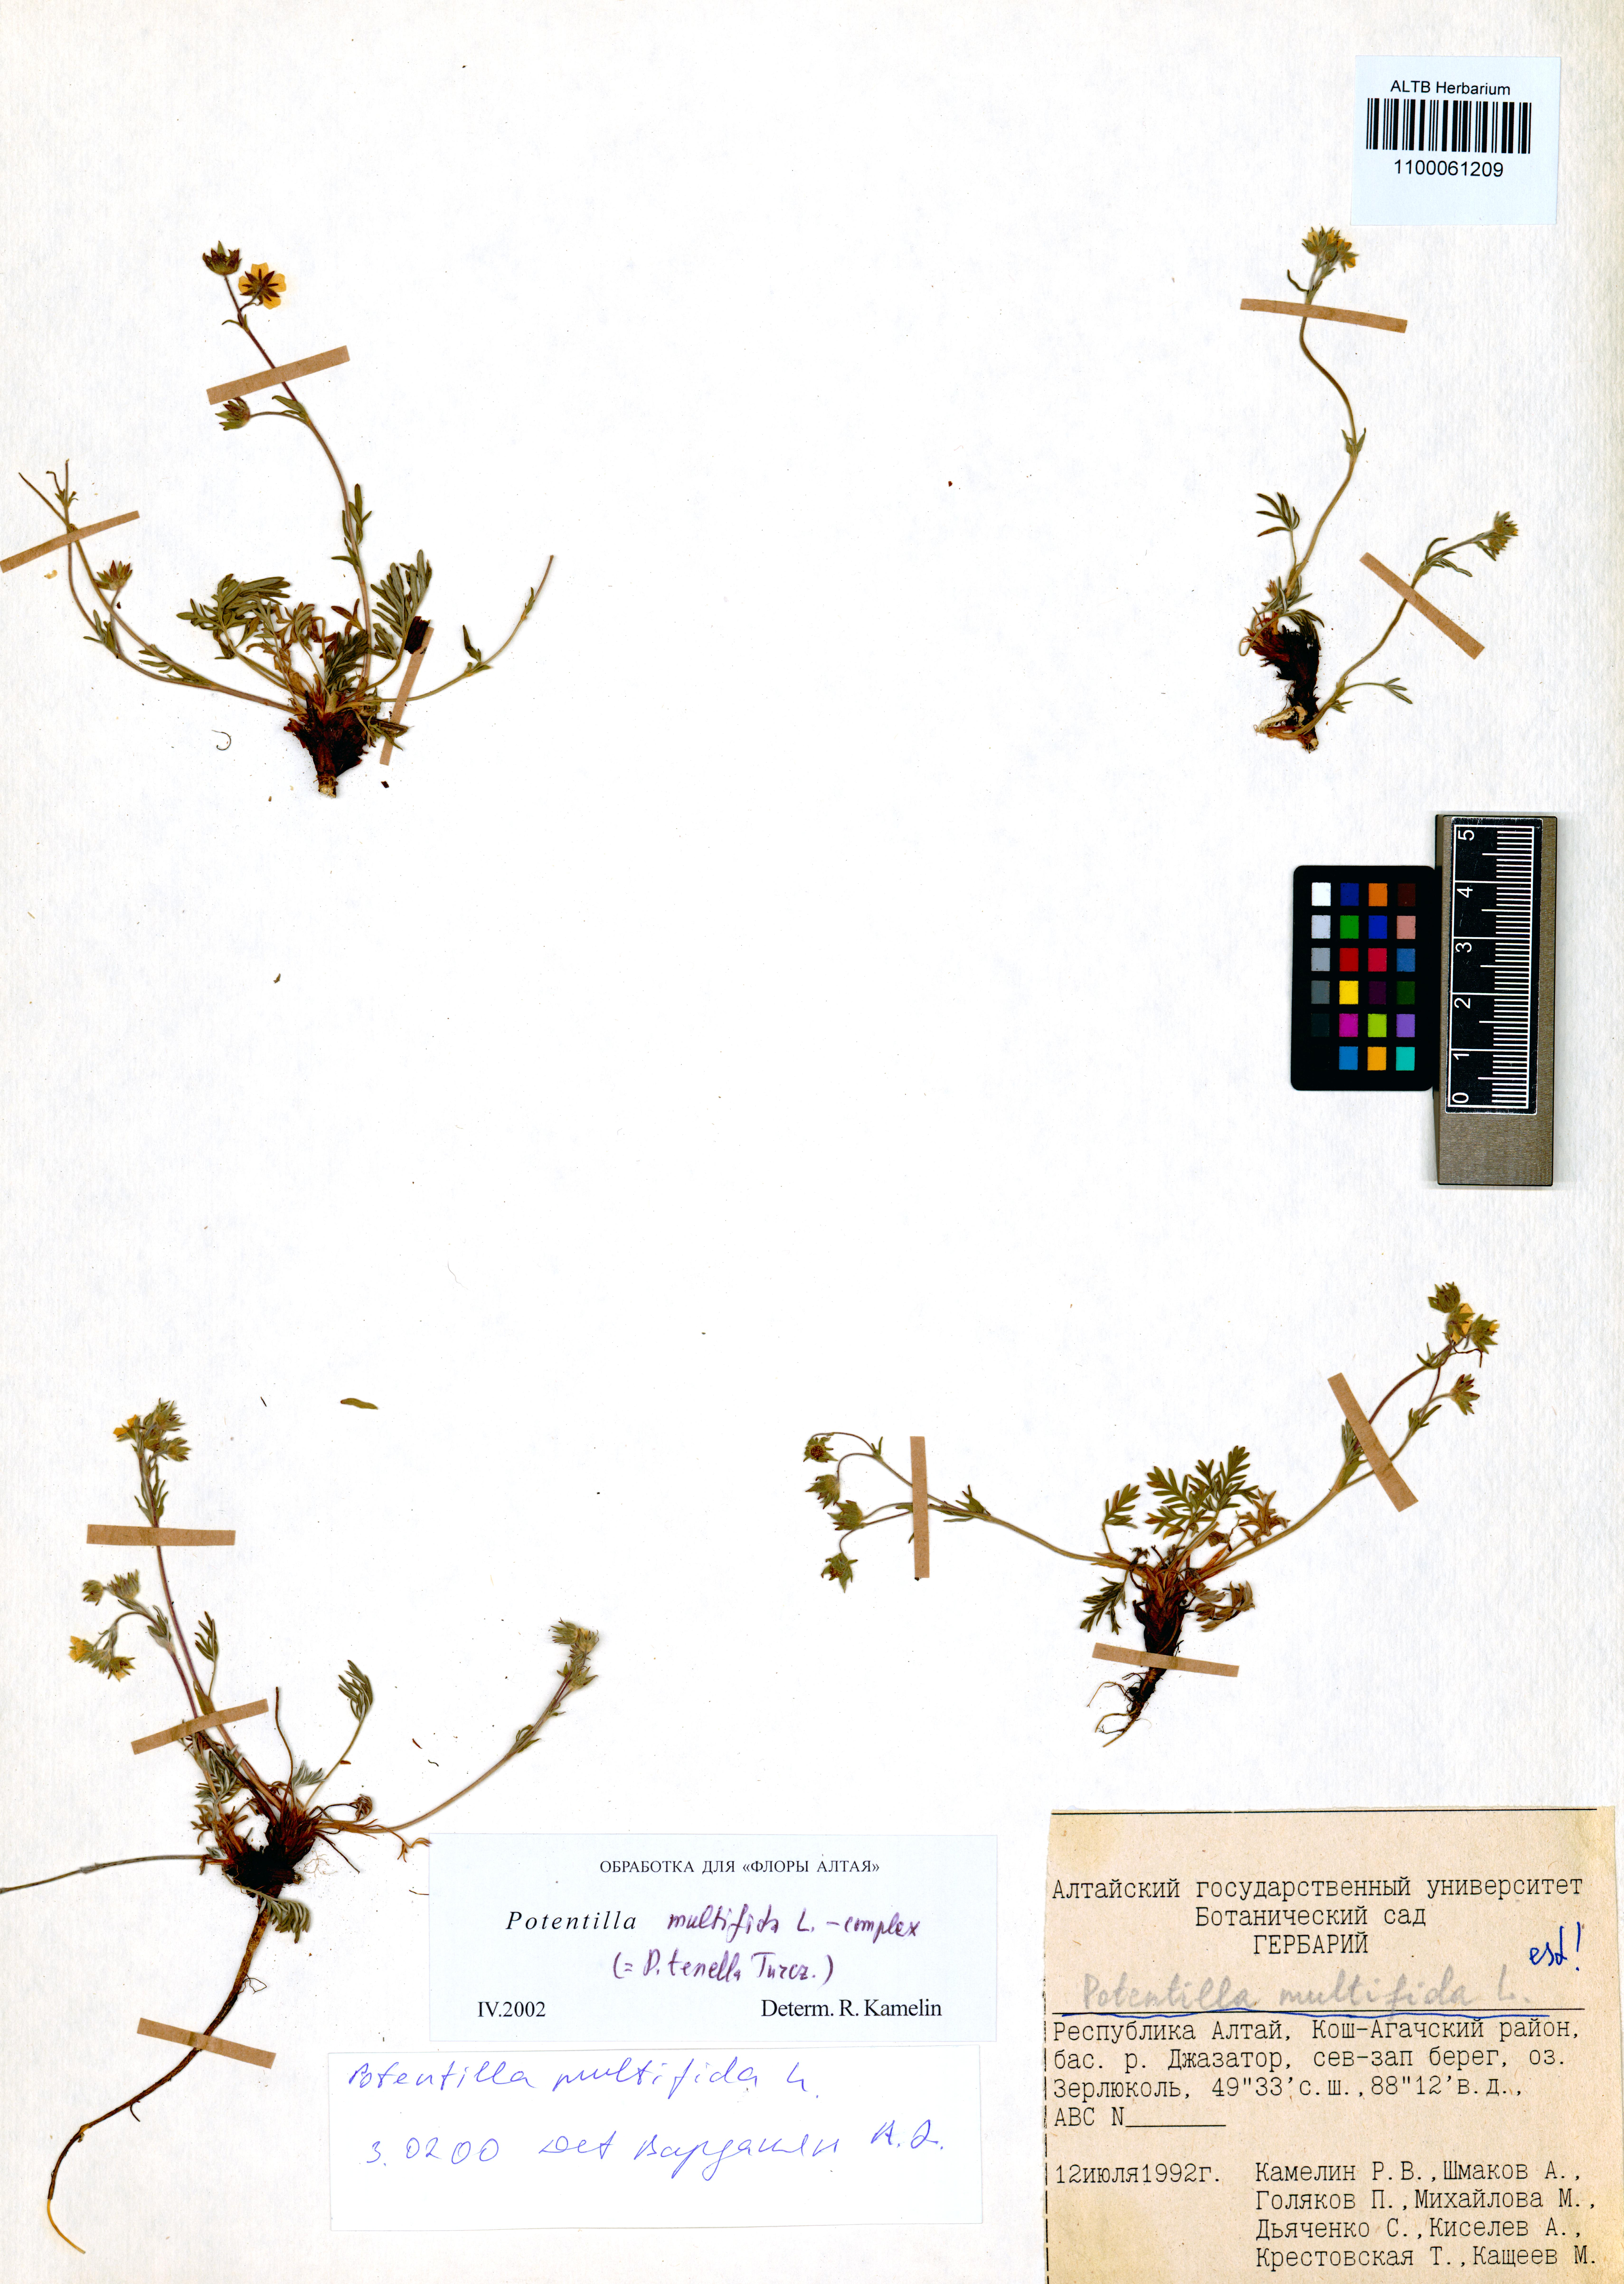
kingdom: Plantae
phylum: Tracheophyta
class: Magnoliopsida
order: Rosales
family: Rosaceae
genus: Potentilla
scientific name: Potentilla multifida
